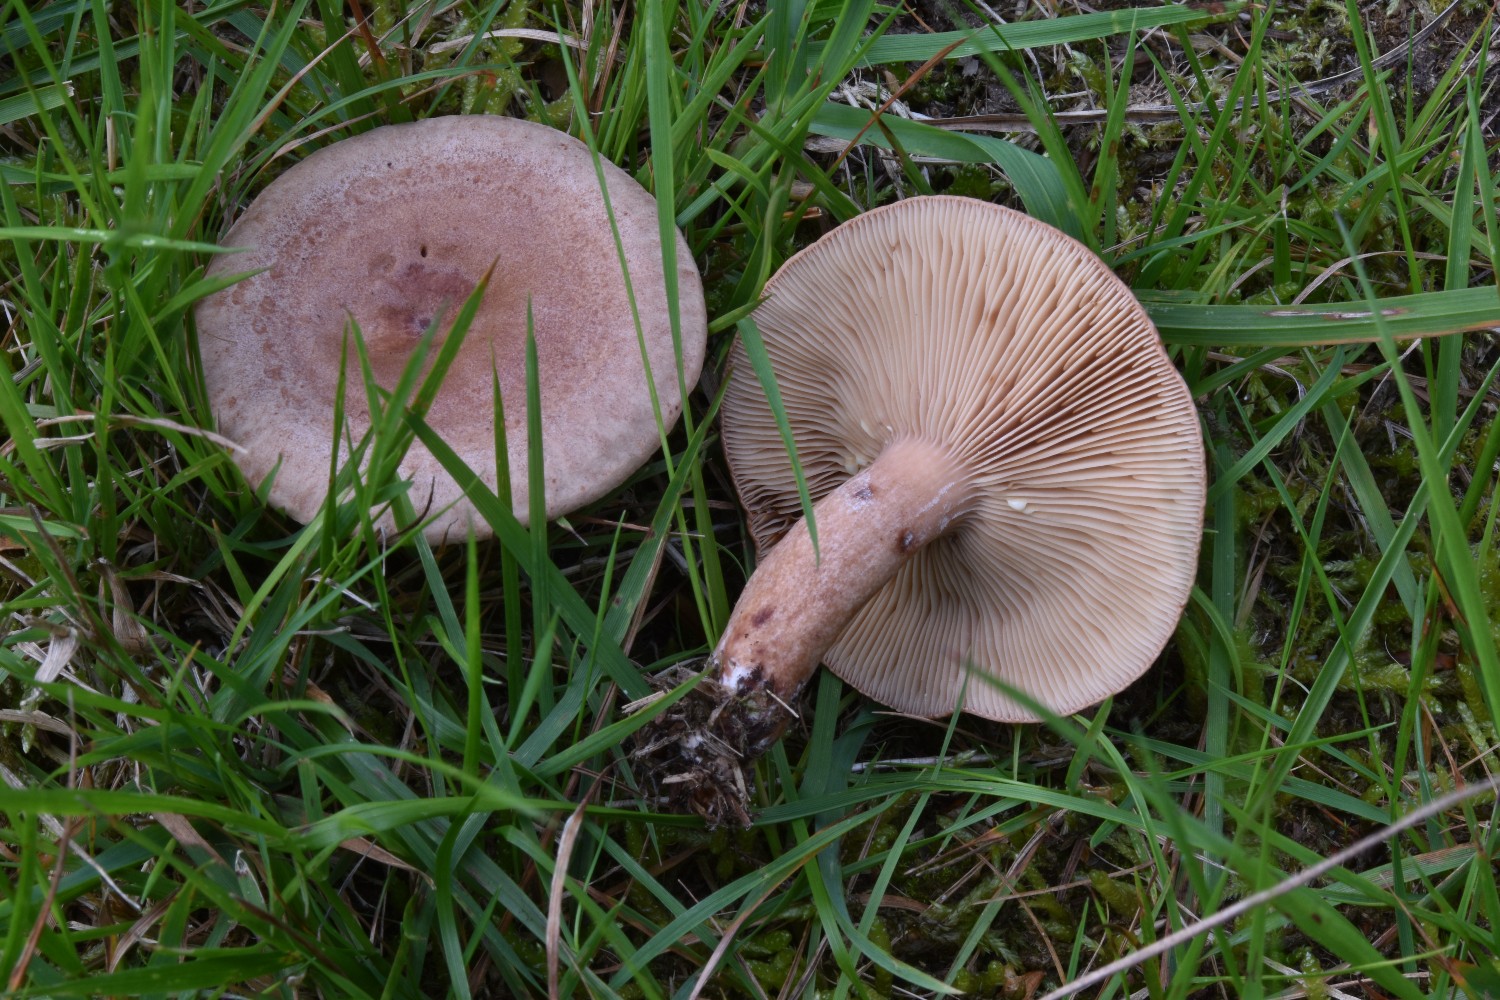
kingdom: Fungi
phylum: Basidiomycota
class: Agaricomycetes
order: Russulales
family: Russulaceae
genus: Lactarius
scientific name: Lactarius quietus
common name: ege-mælkehat
